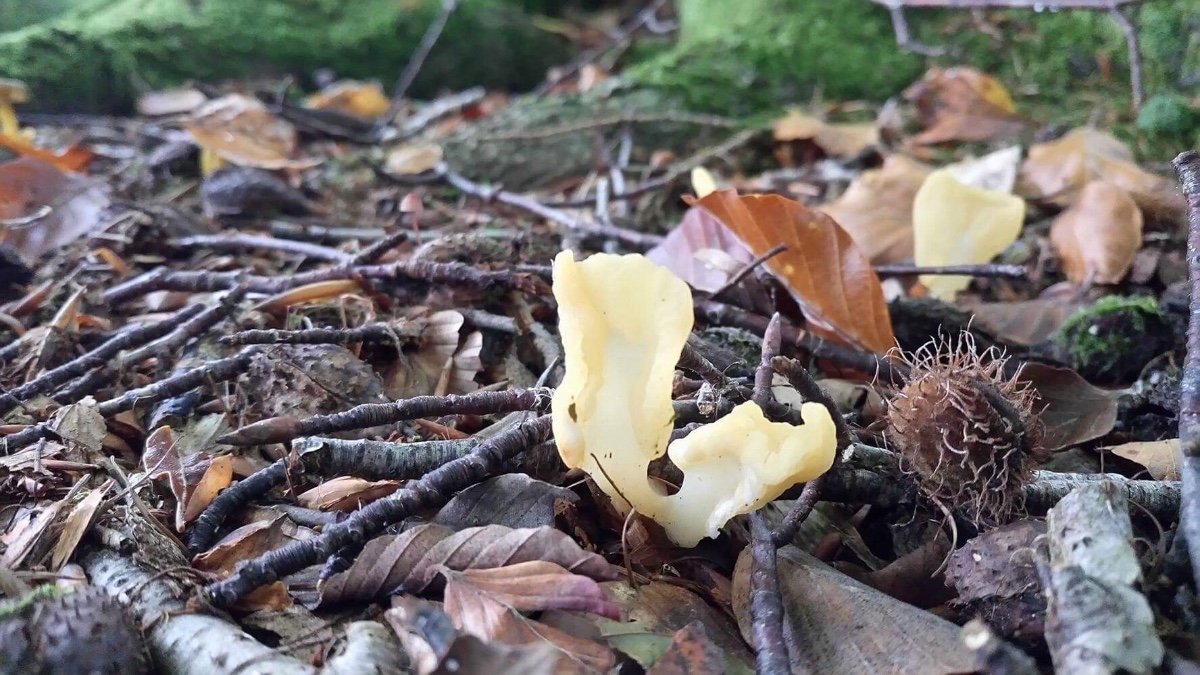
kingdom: Fungi
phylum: Ascomycota
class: Leotiomycetes
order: Rhytismatales
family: Cudoniaceae
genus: Spathularia
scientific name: Spathularia flavida
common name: gul spatelsvamp
